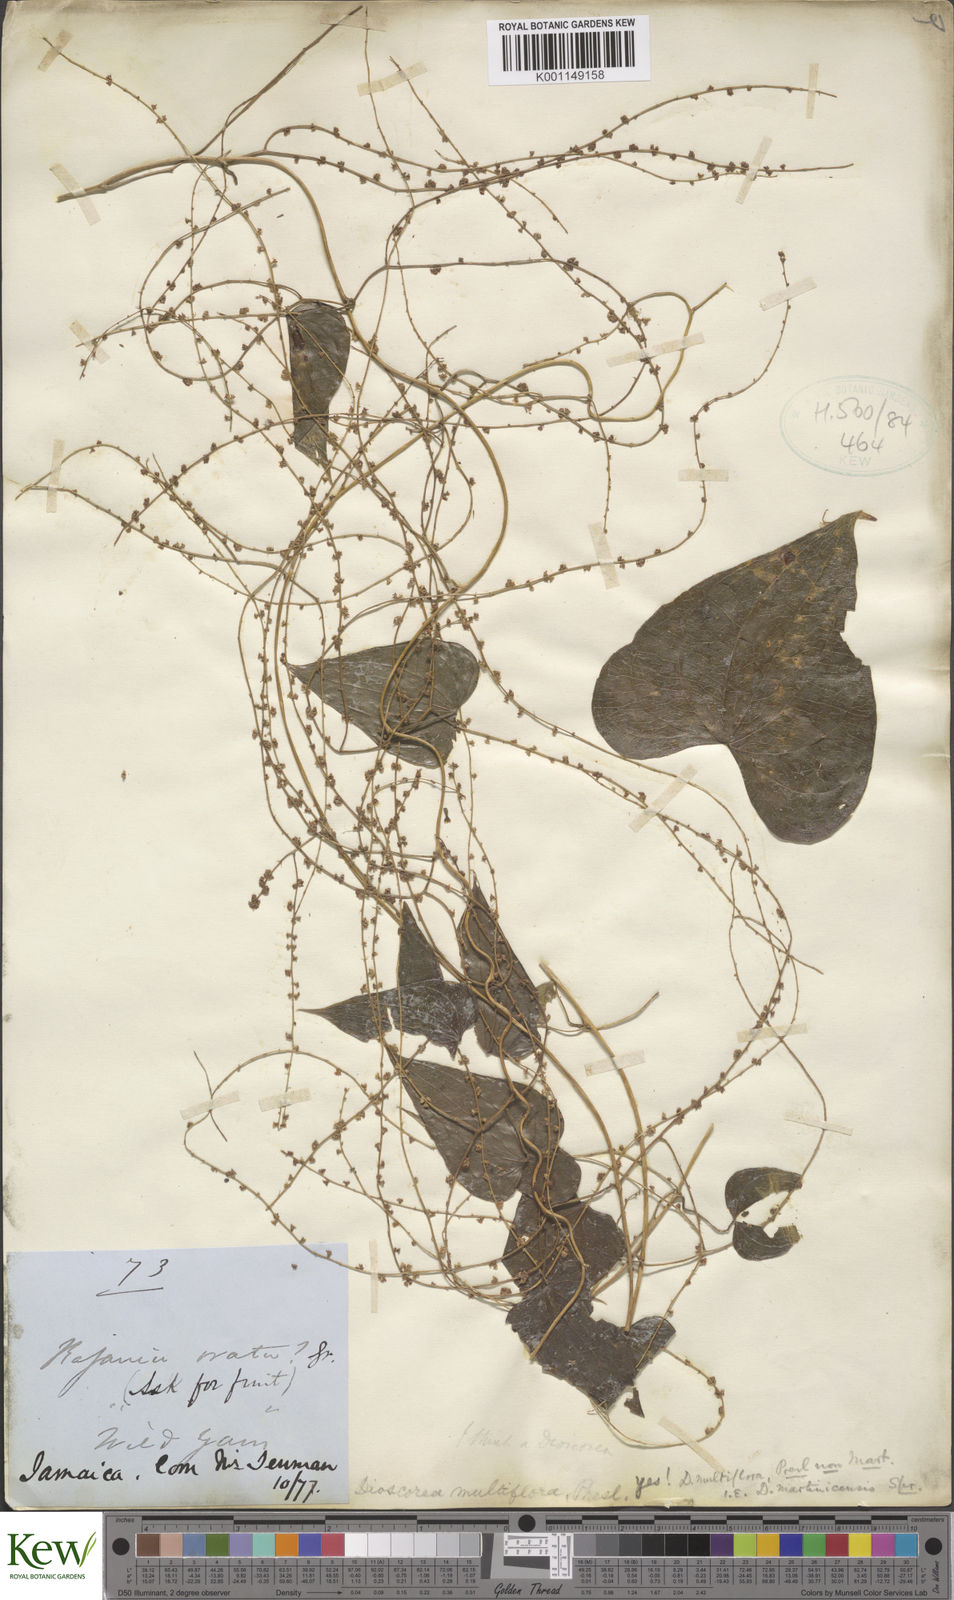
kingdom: Plantae
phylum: Tracheophyta
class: Liliopsida
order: Dioscoreales
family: Dioscoreaceae
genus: Dioscorea
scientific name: Dioscorea polygonoides
